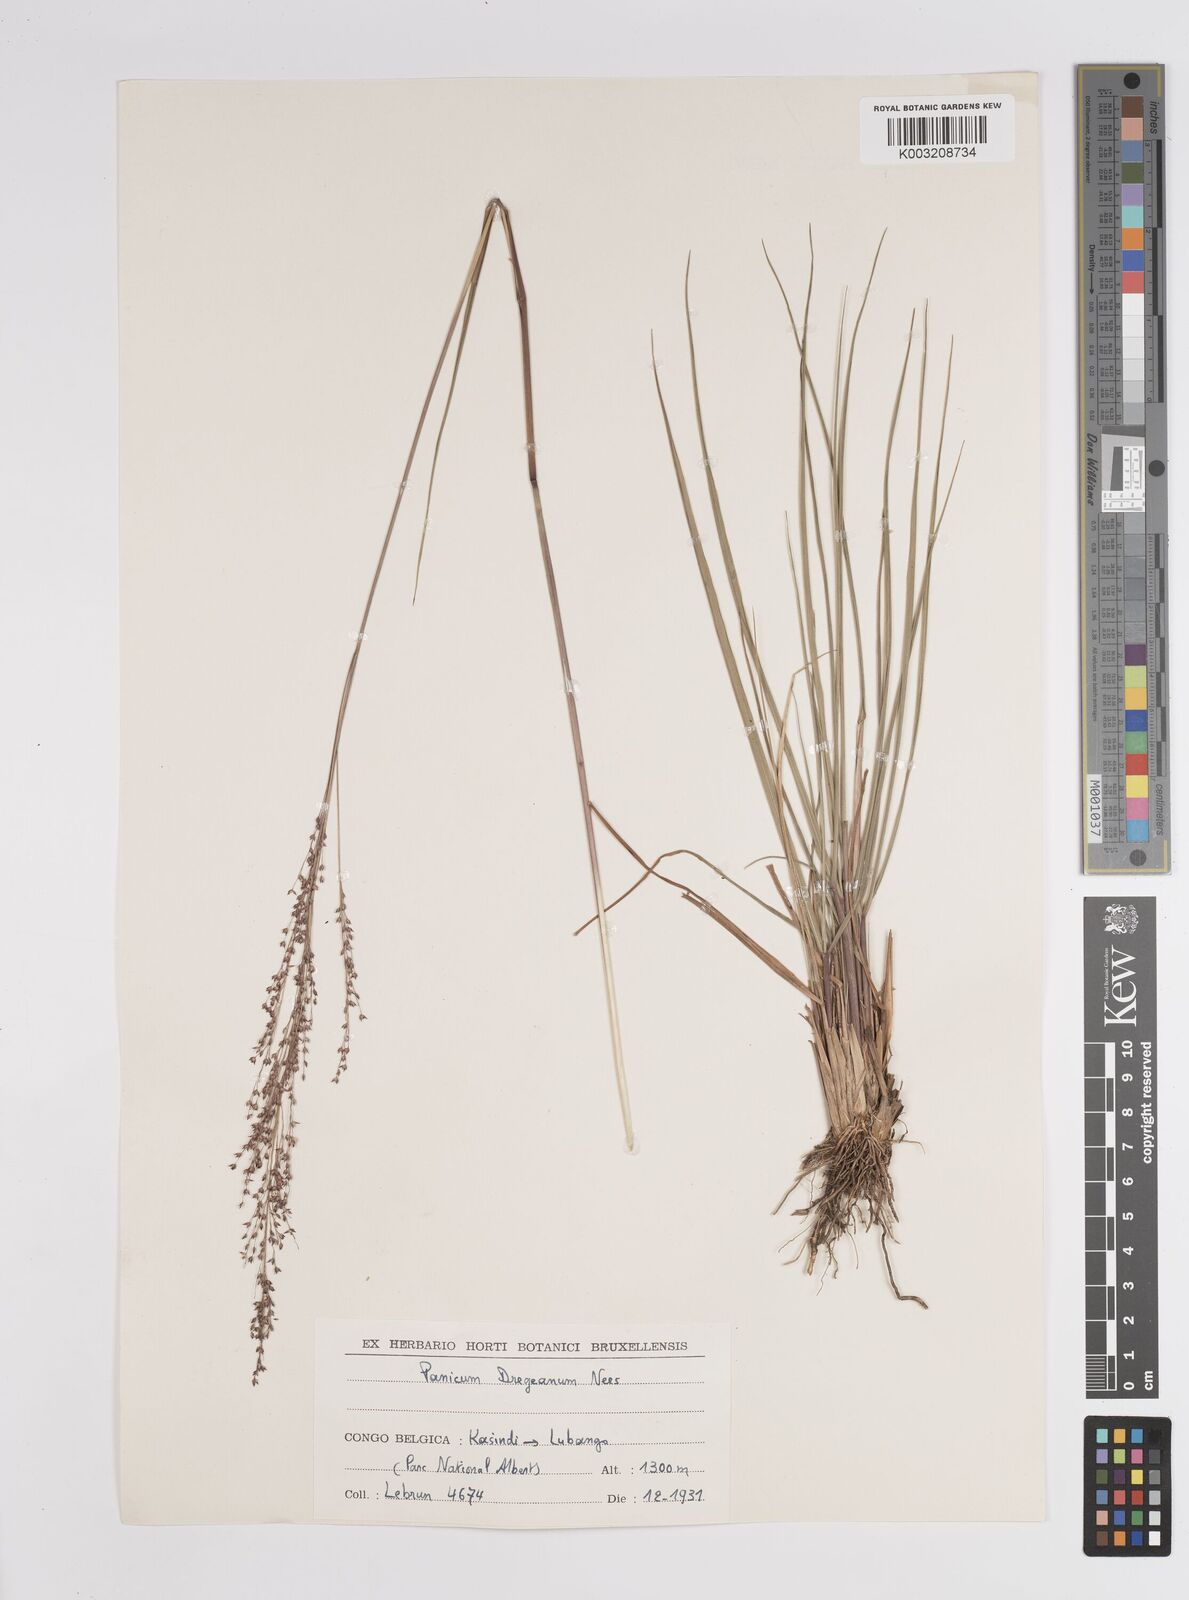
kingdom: Plantae
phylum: Tracheophyta
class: Liliopsida
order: Poales
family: Poaceae
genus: Panicum
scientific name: Panicum dregeanum
